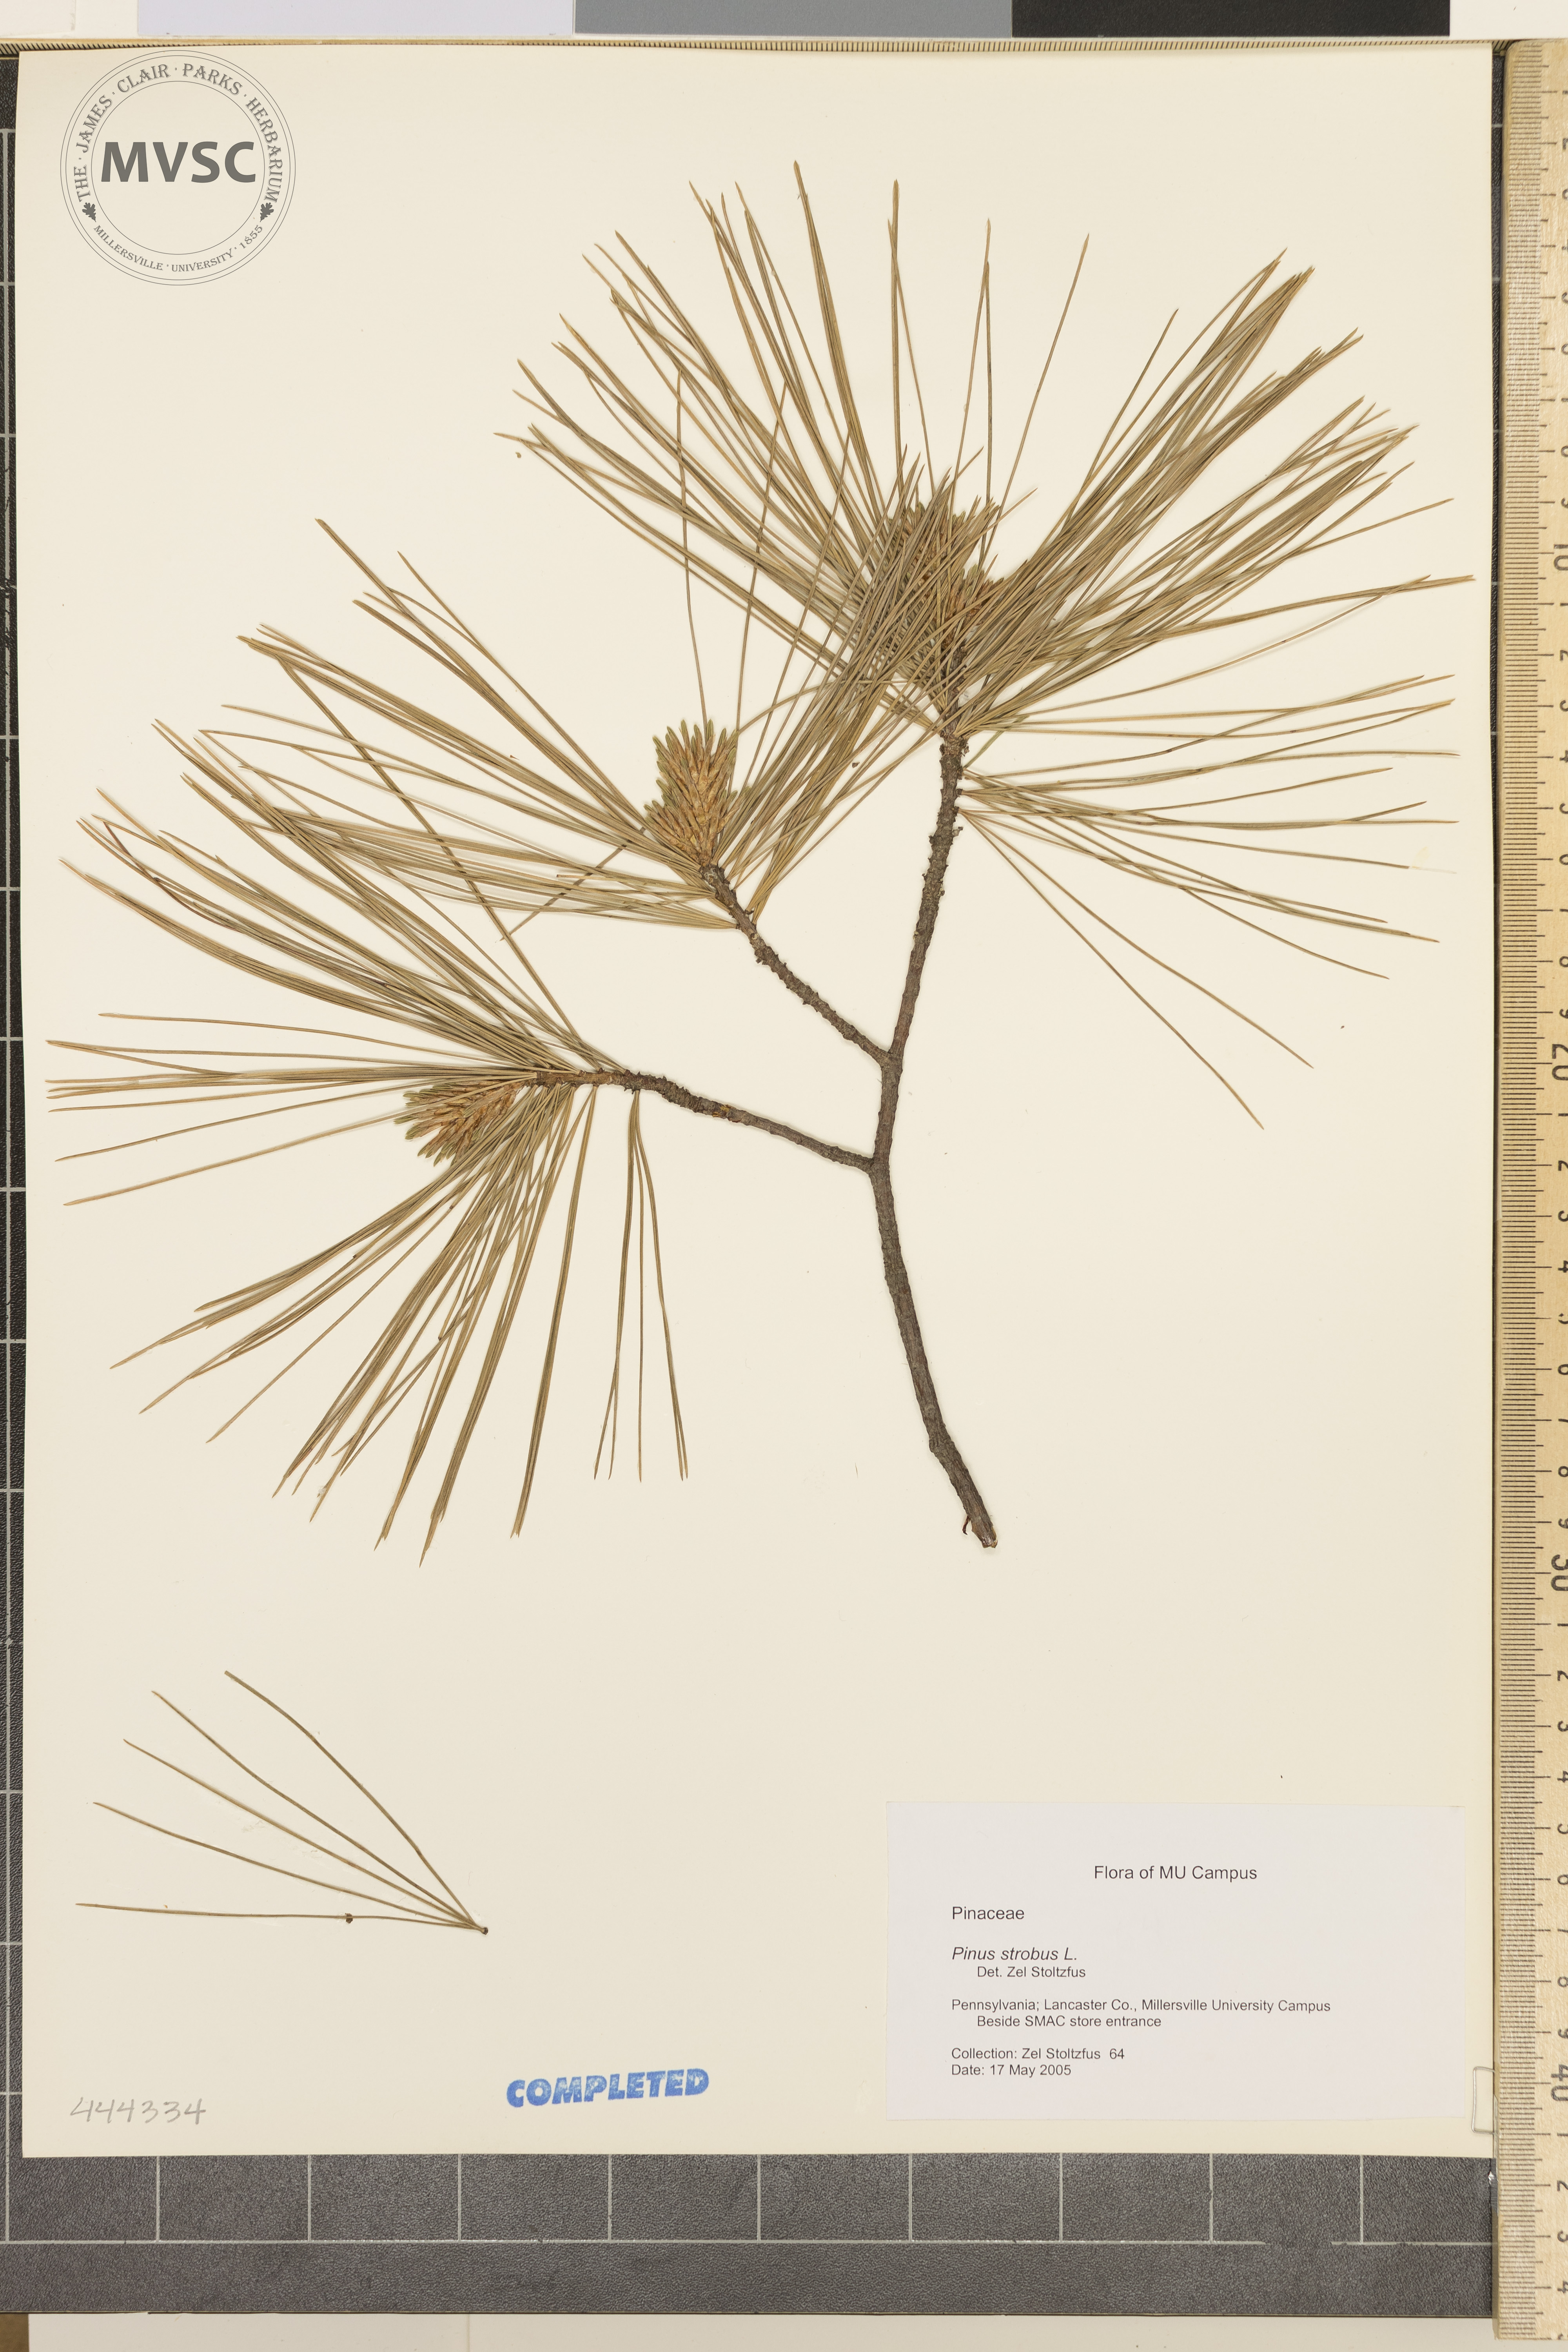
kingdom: Plantae
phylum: Tracheophyta
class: Pinopsida
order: Pinales
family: Pinaceae
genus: Pinus
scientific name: Pinus strobus
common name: Weymouth pine
